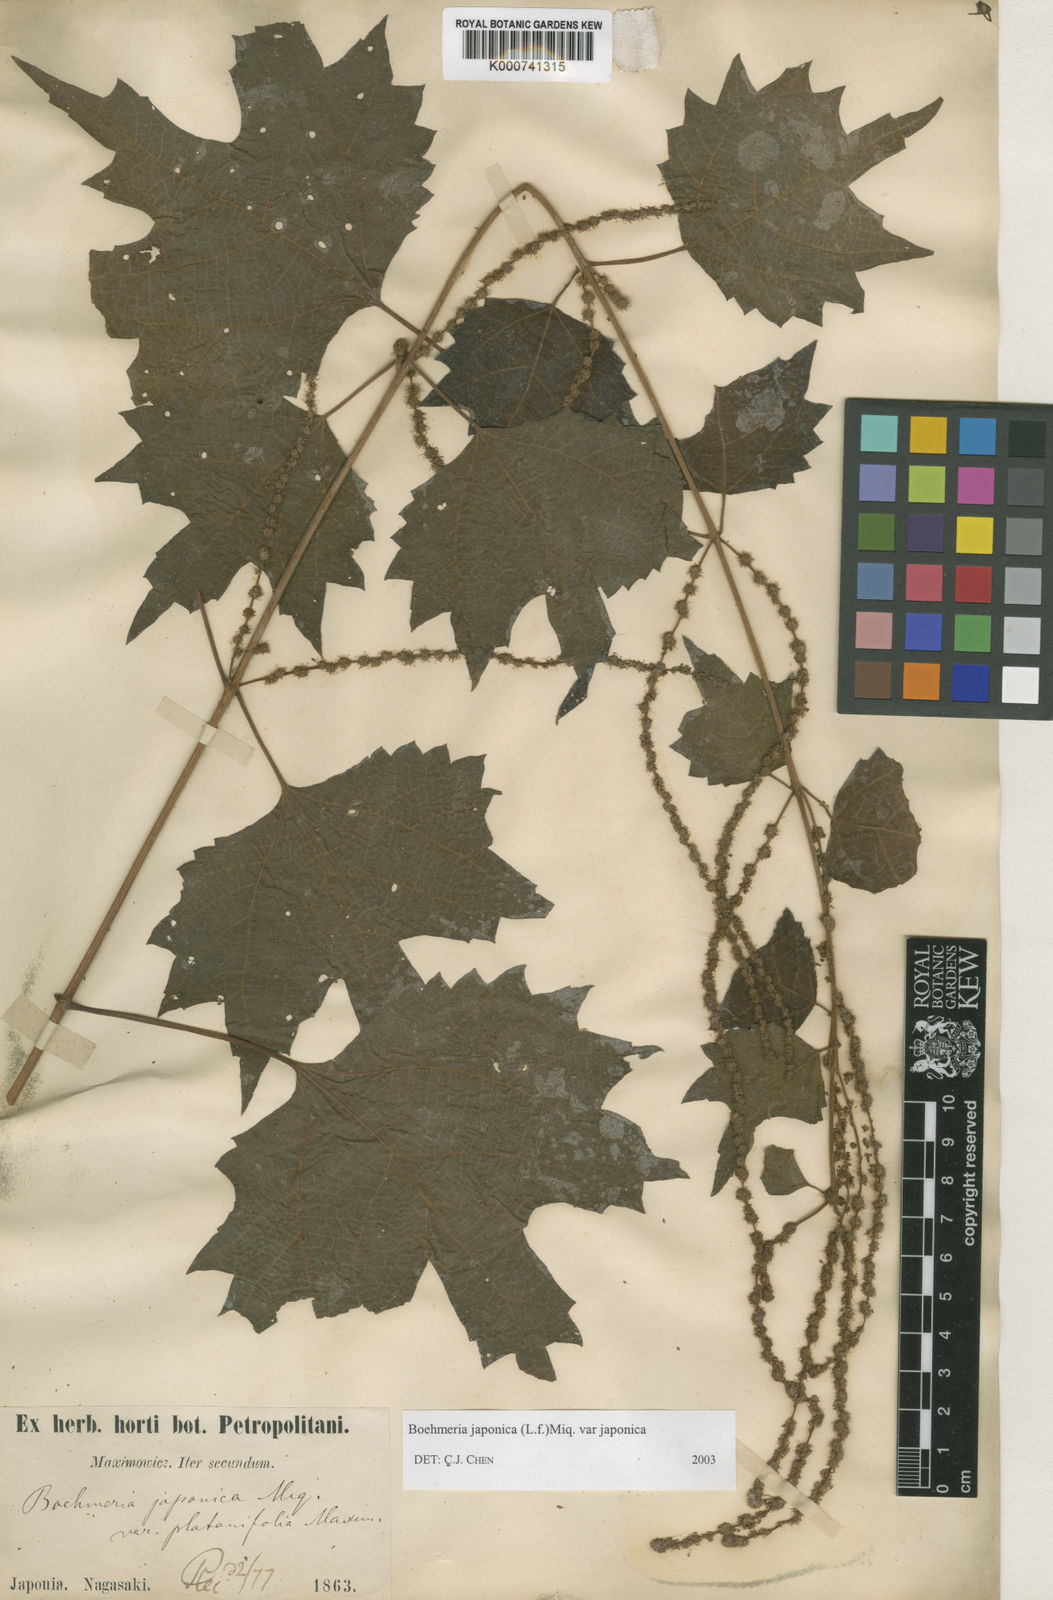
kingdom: Plantae
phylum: Tracheophyta
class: Magnoliopsida
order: Rosales
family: Urticaceae
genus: Boehmeria
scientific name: Boehmeria japonica
